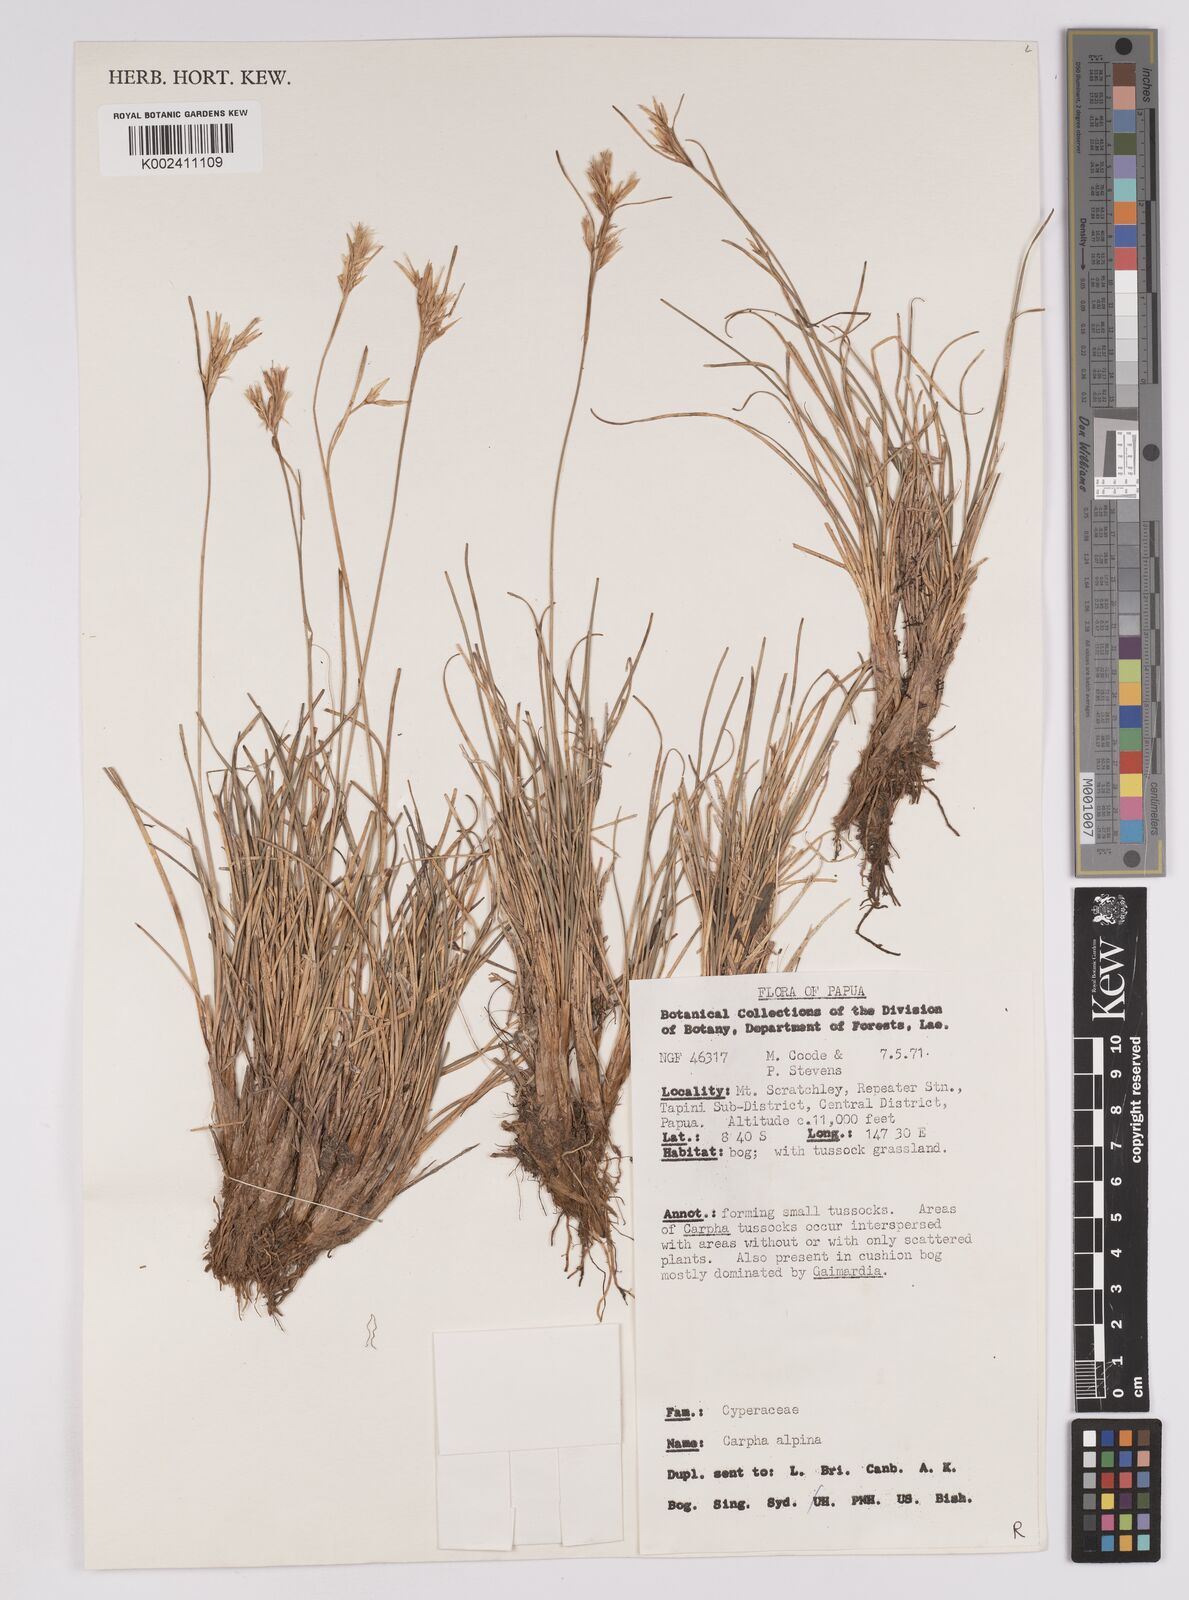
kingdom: Plantae
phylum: Tracheophyta
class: Liliopsida
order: Poales
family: Cyperaceae
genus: Carpha
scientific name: Carpha alpina
